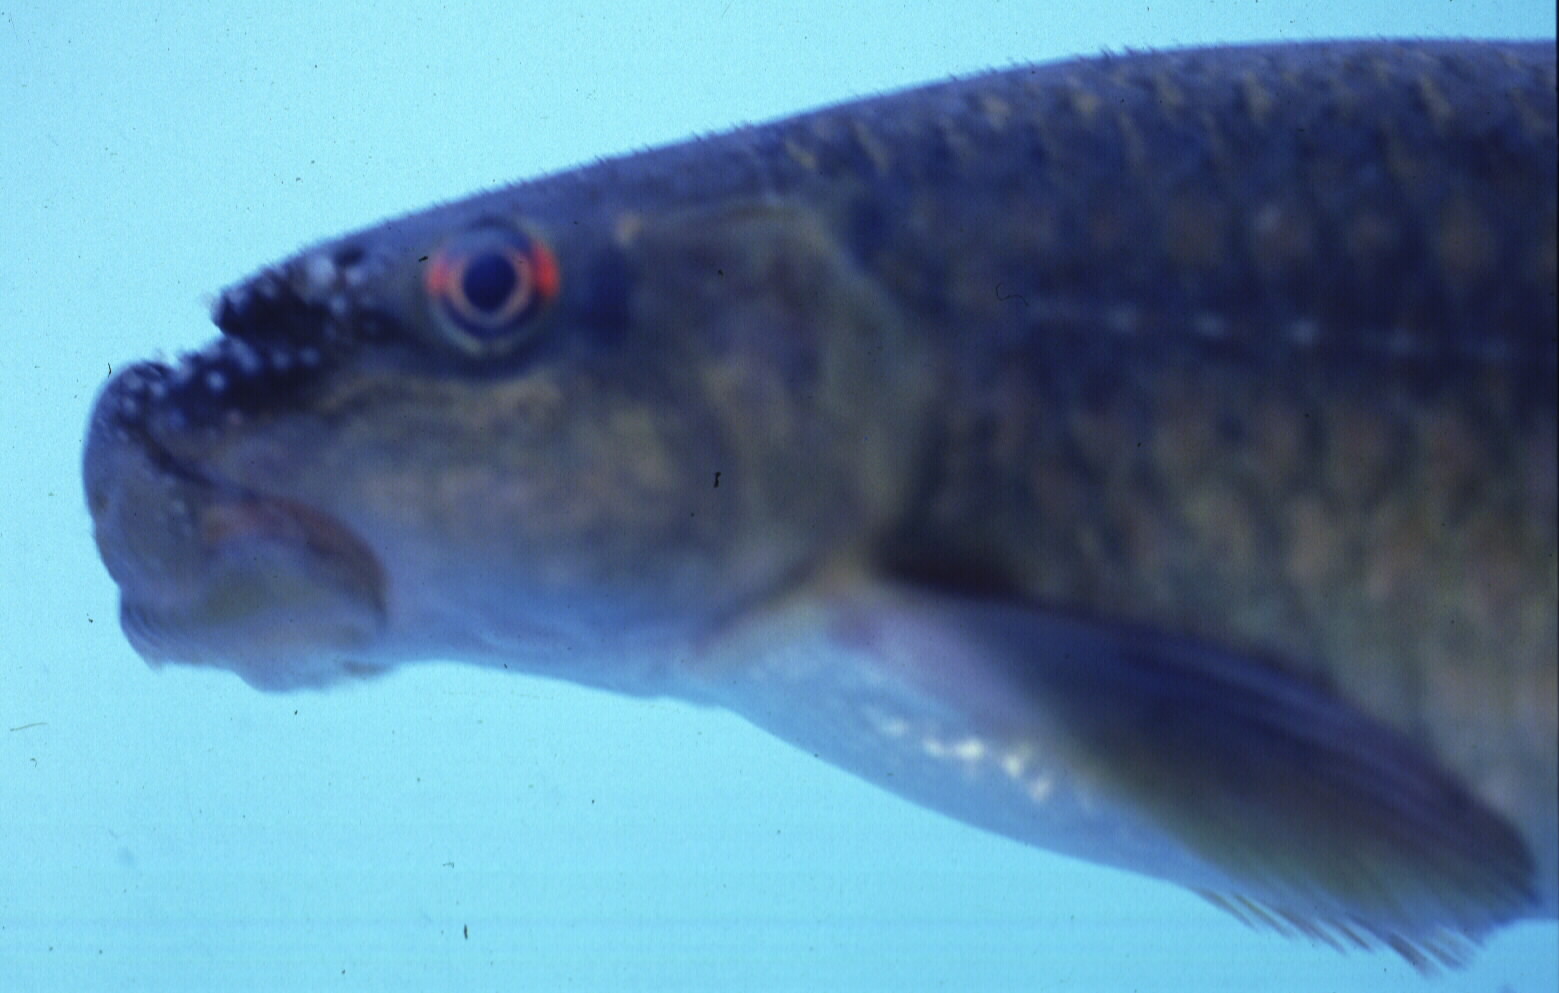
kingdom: Animalia
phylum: Chordata
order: Cypriniformes
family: Cyprinidae
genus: Labeo
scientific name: Labeo cylindricus
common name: Redeye labeo
